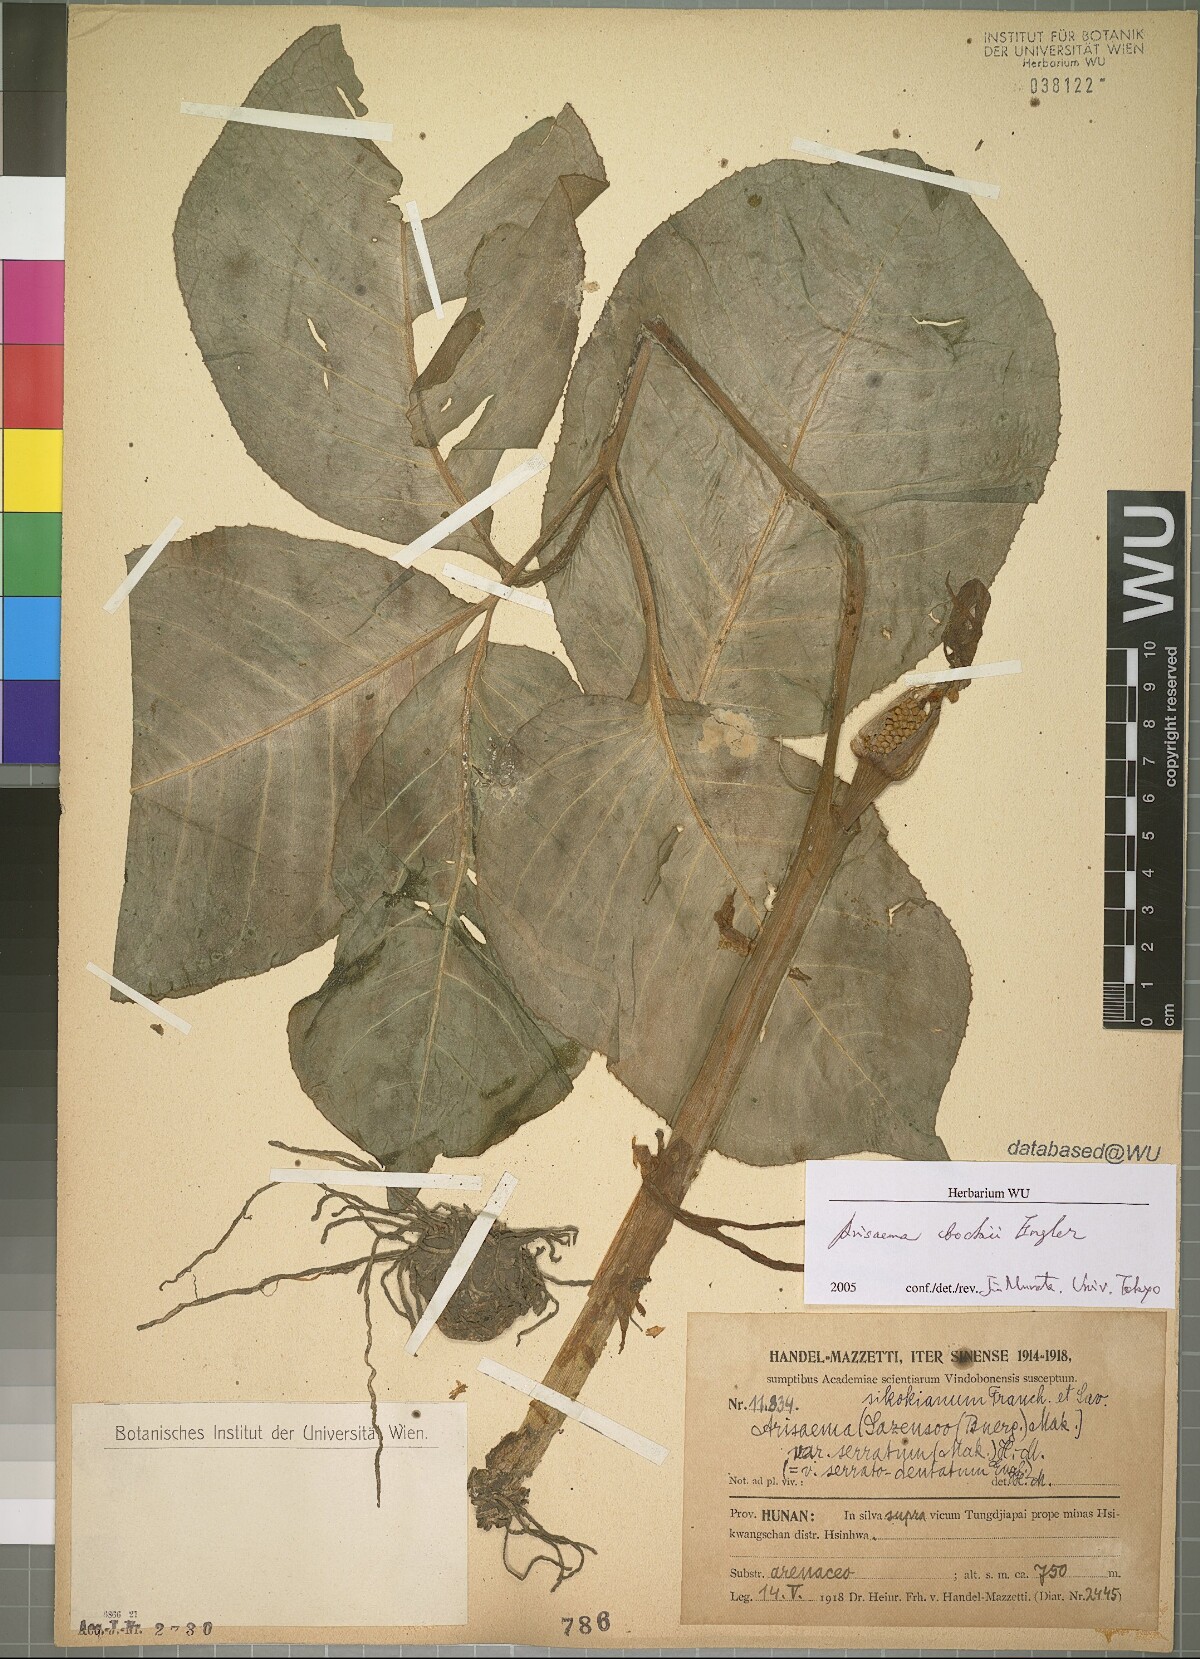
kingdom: Plantae
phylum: Tracheophyta
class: Liliopsida
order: Alismatales
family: Araceae
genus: Arisaema
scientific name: Arisaema bockii
